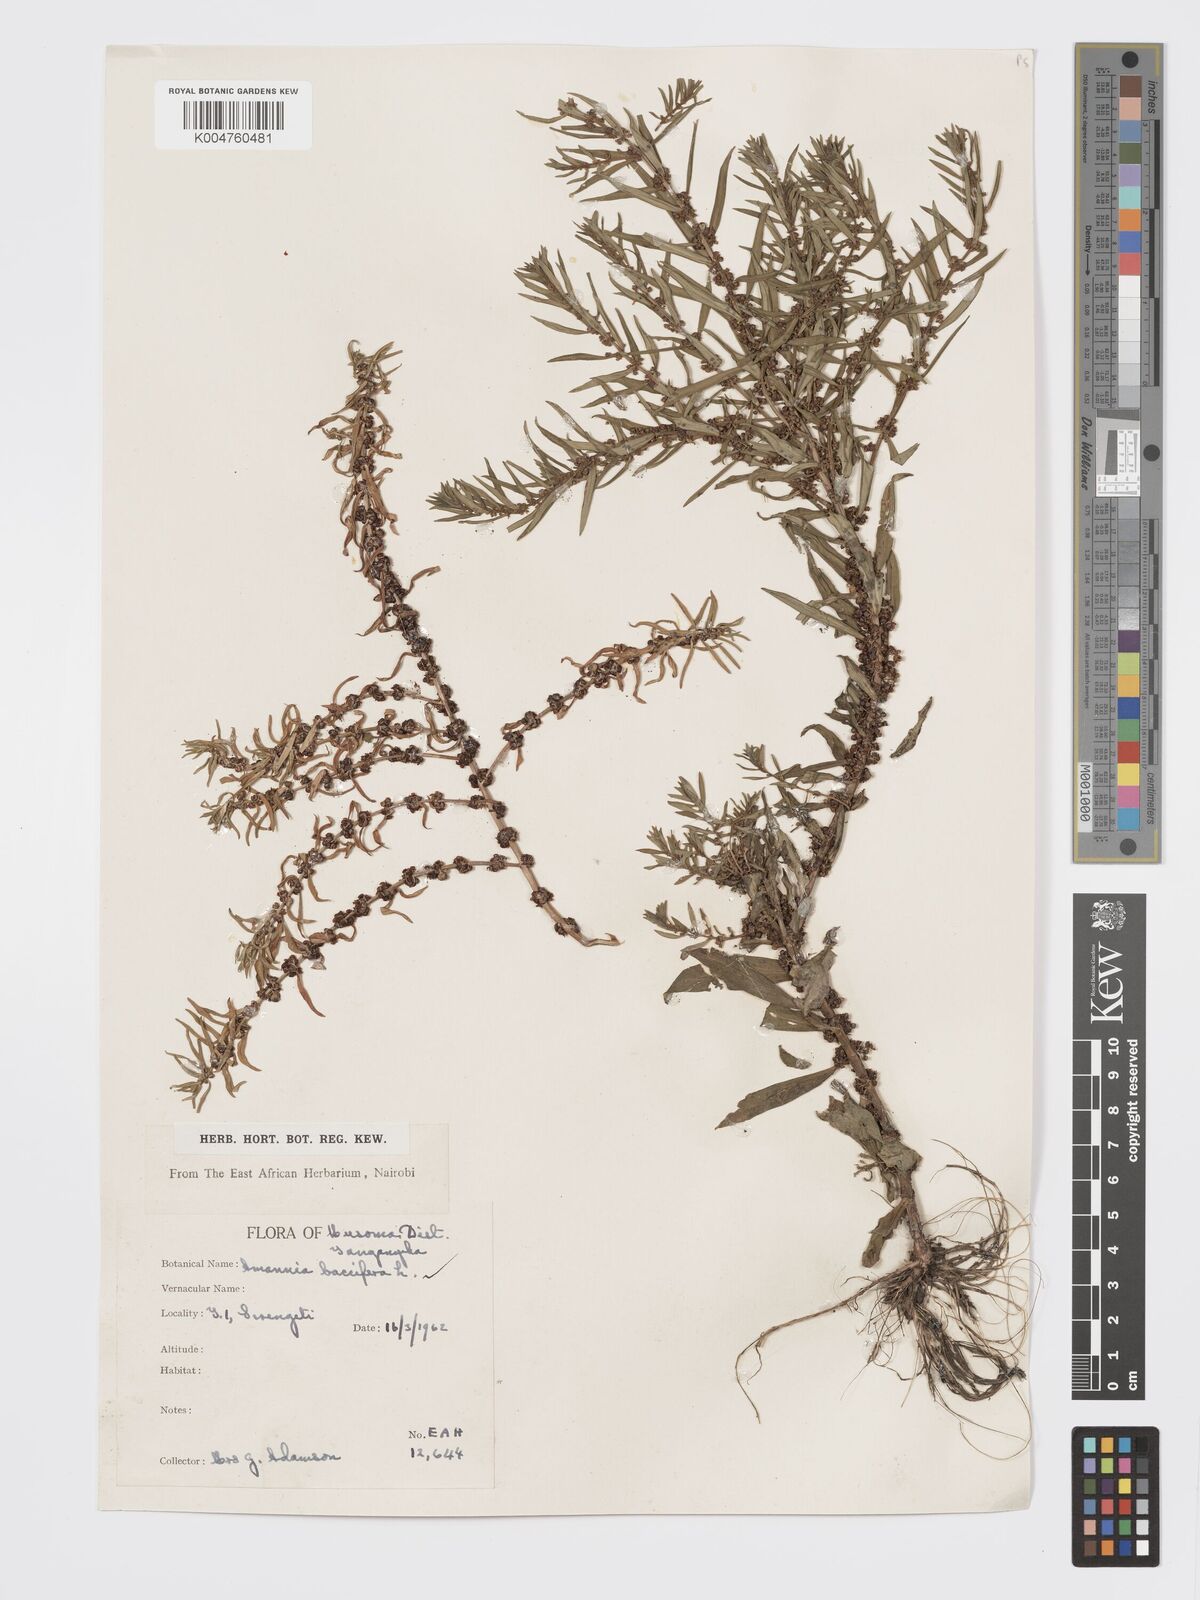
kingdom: Plantae
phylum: Tracheophyta
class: Magnoliopsida
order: Myrtales
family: Lythraceae
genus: Ammannia
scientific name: Ammannia
